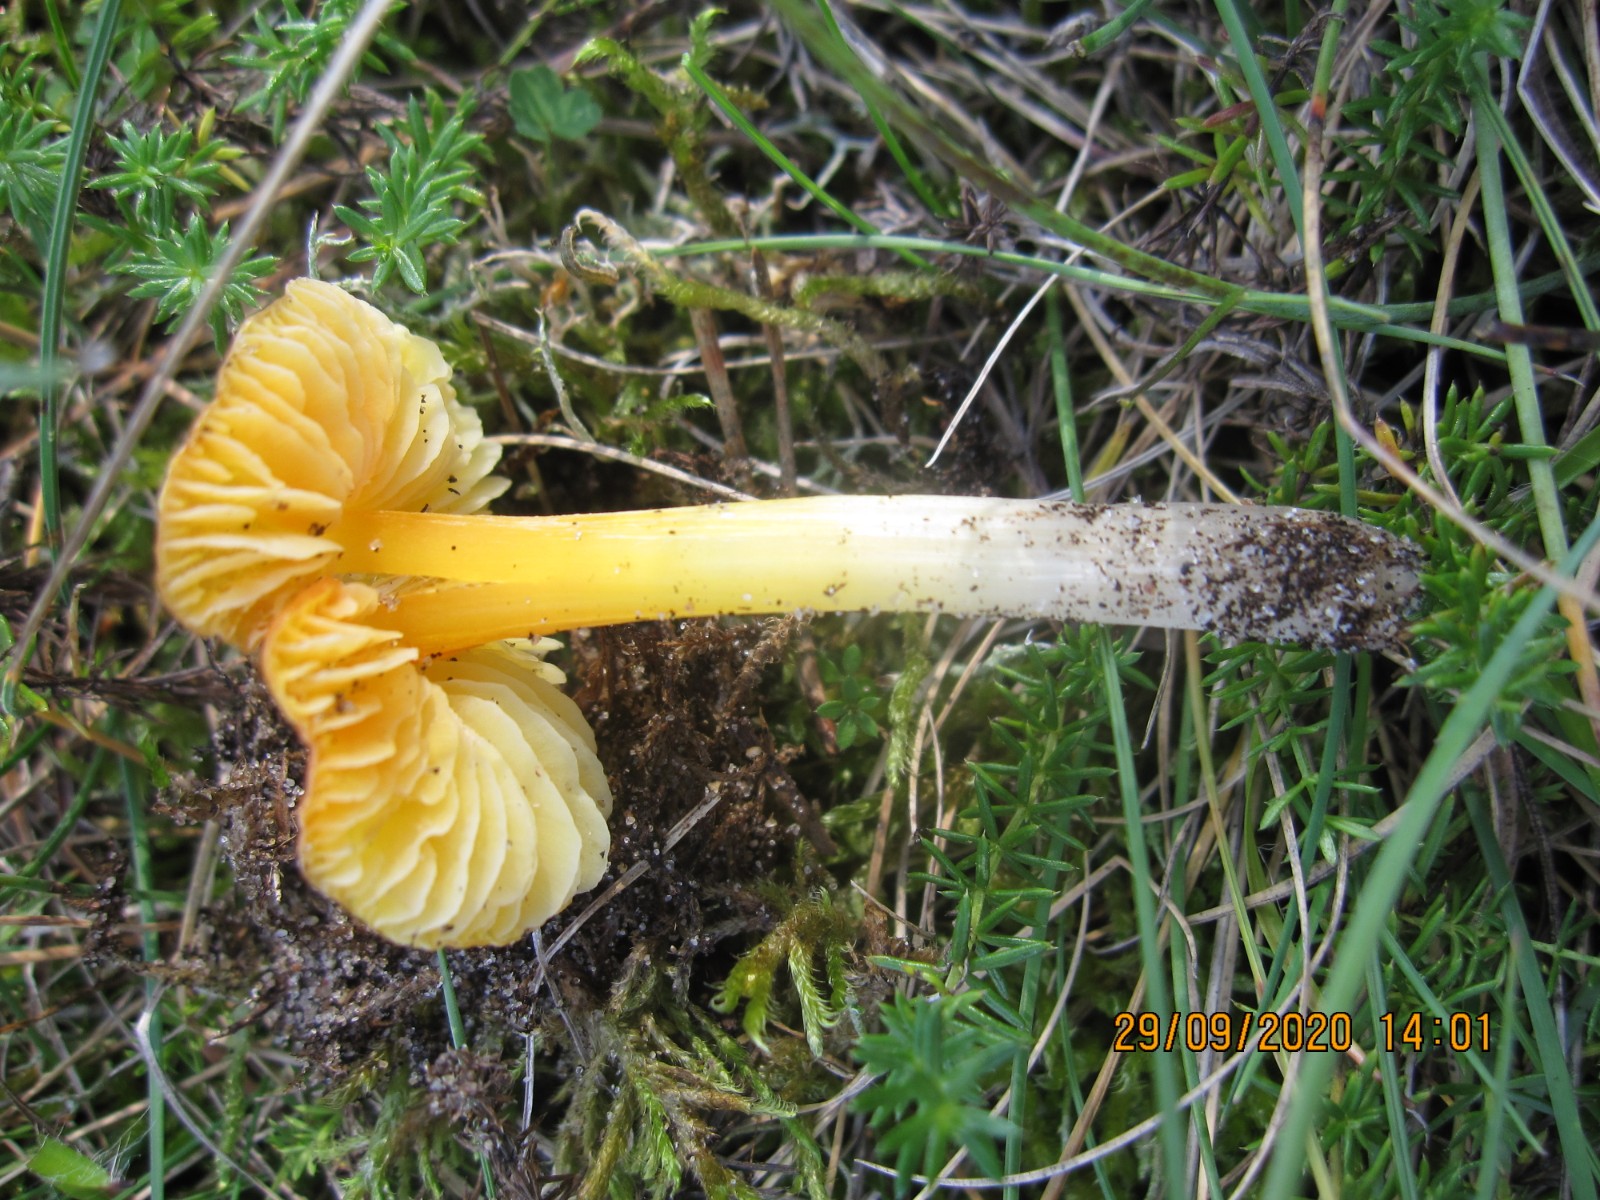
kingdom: Fungi
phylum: Basidiomycota
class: Agaricomycetes
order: Agaricales
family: Hygrophoraceae
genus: Hygrocybe
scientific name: Hygrocybe acutoconica
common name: spidspuklet vokshat
